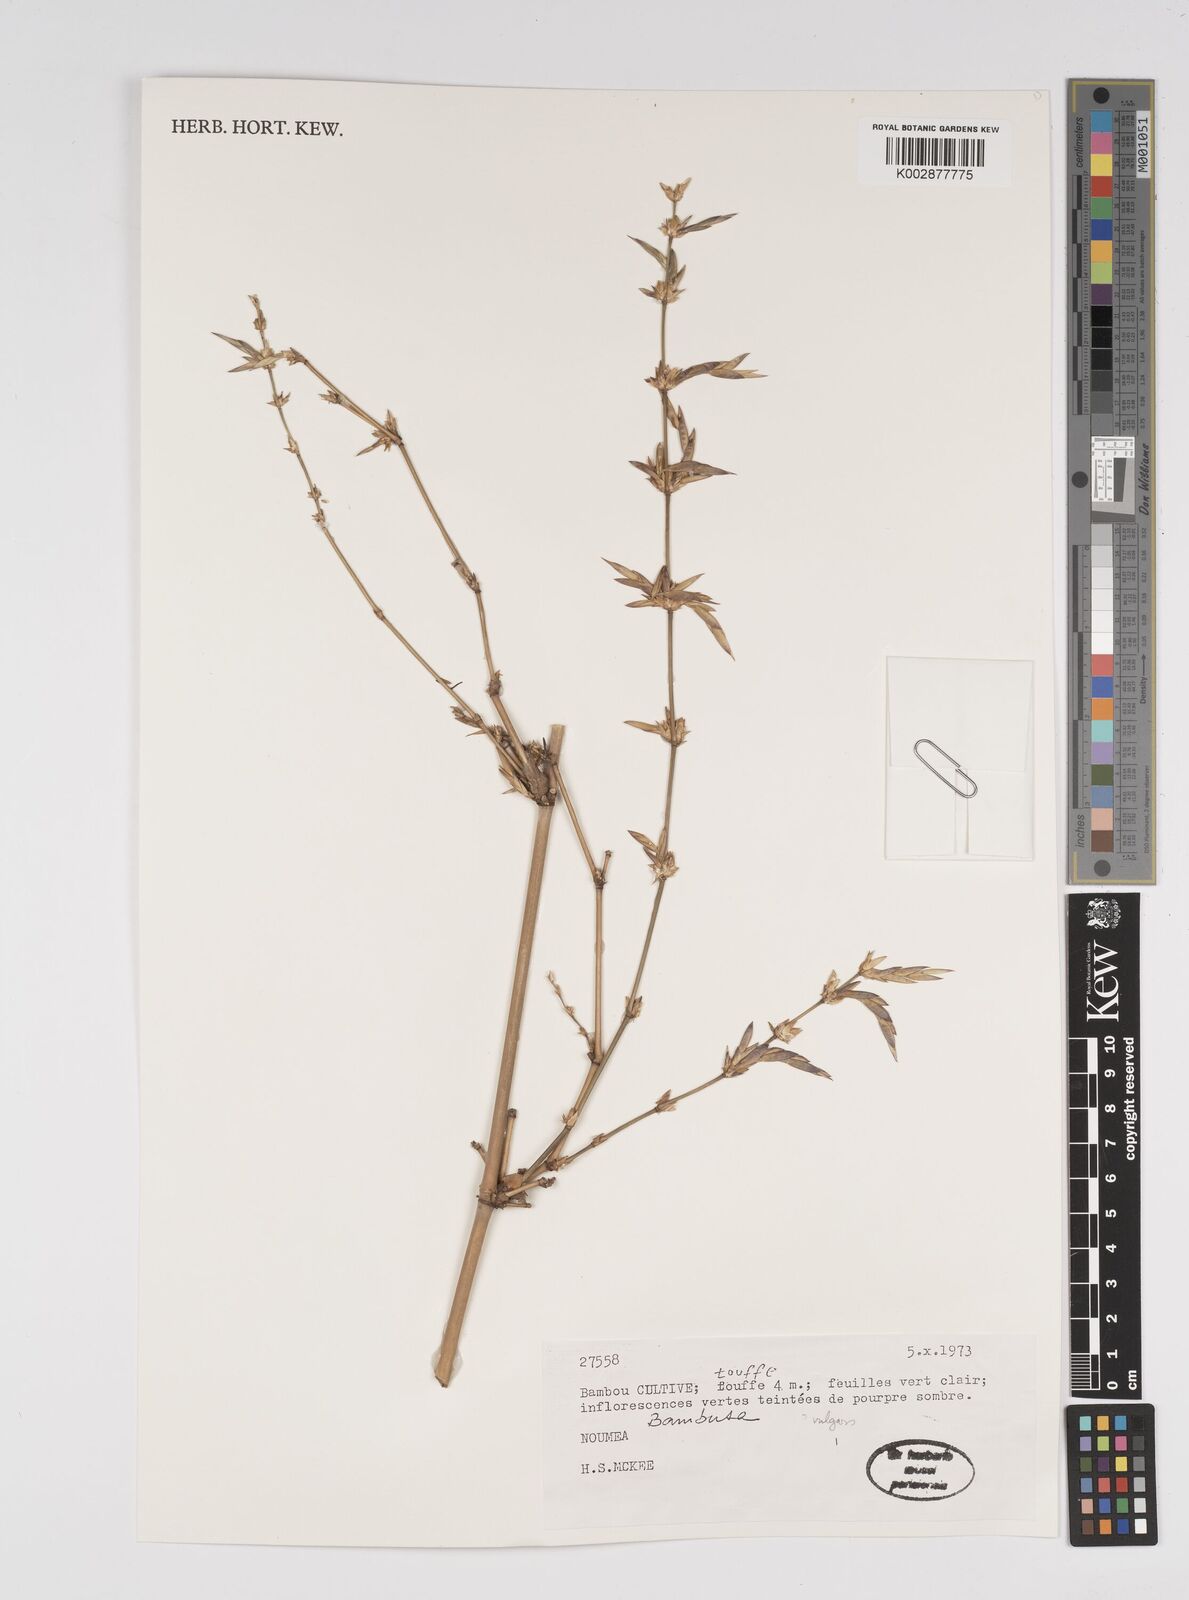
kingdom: Plantae
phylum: Tracheophyta
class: Liliopsida
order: Poales
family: Poaceae
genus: Bambusa
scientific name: Bambusa
